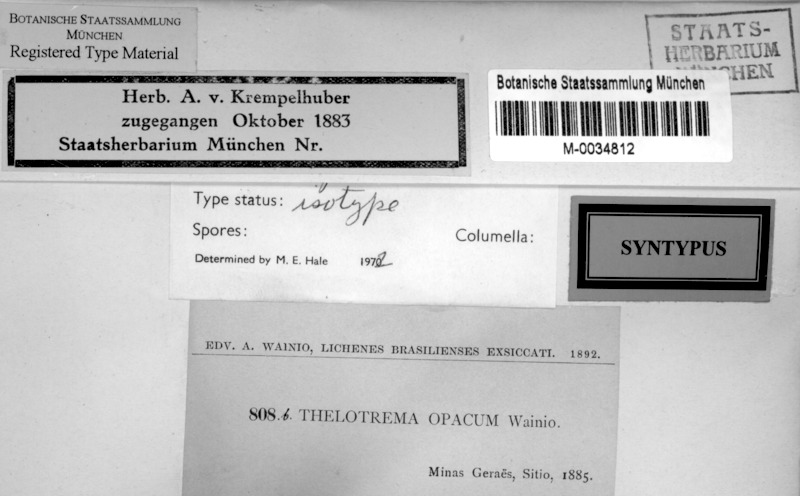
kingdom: Fungi
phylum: Ascomycota
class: Lecanoromycetes
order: Ostropales
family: Graphidaceae
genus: Myriotrema
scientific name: Myriotrema myriotremoides
